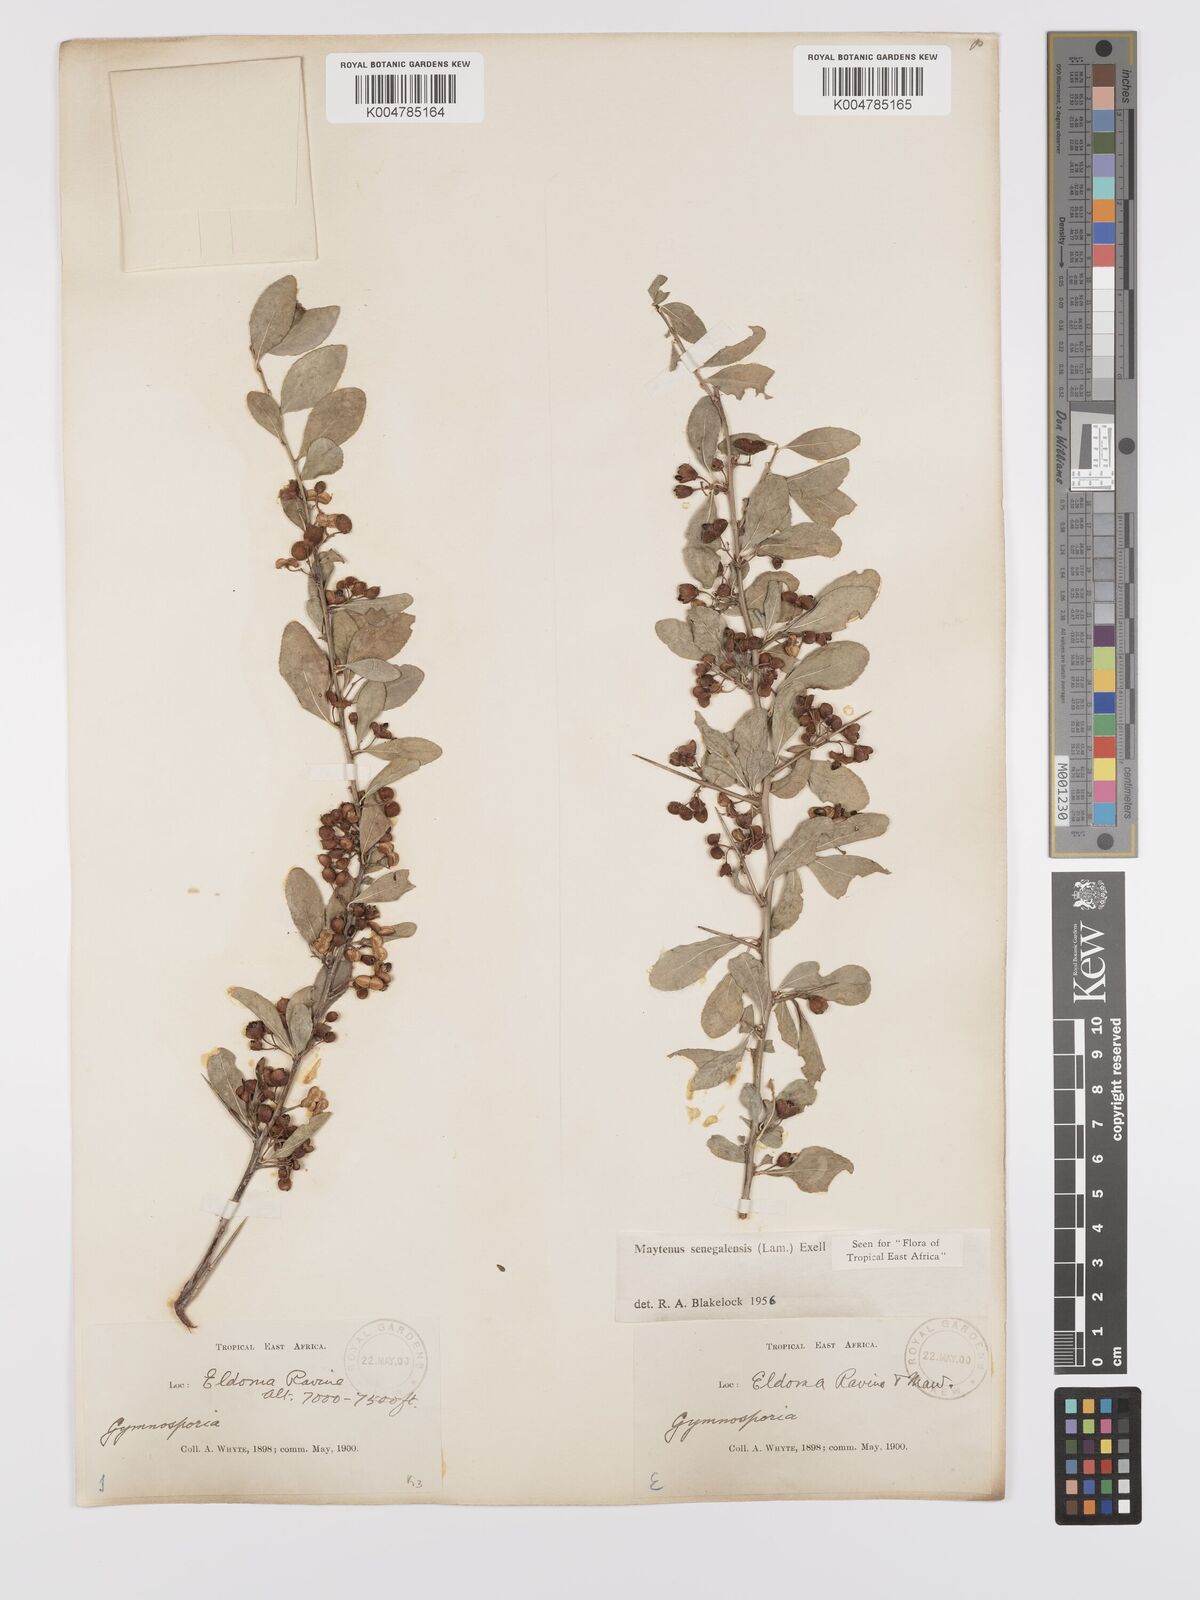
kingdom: Plantae
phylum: Tracheophyta
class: Magnoliopsida
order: Celastrales
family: Celastraceae
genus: Gymnosporia
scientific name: Gymnosporia heterophylla
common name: Angle-stem spikethorn
